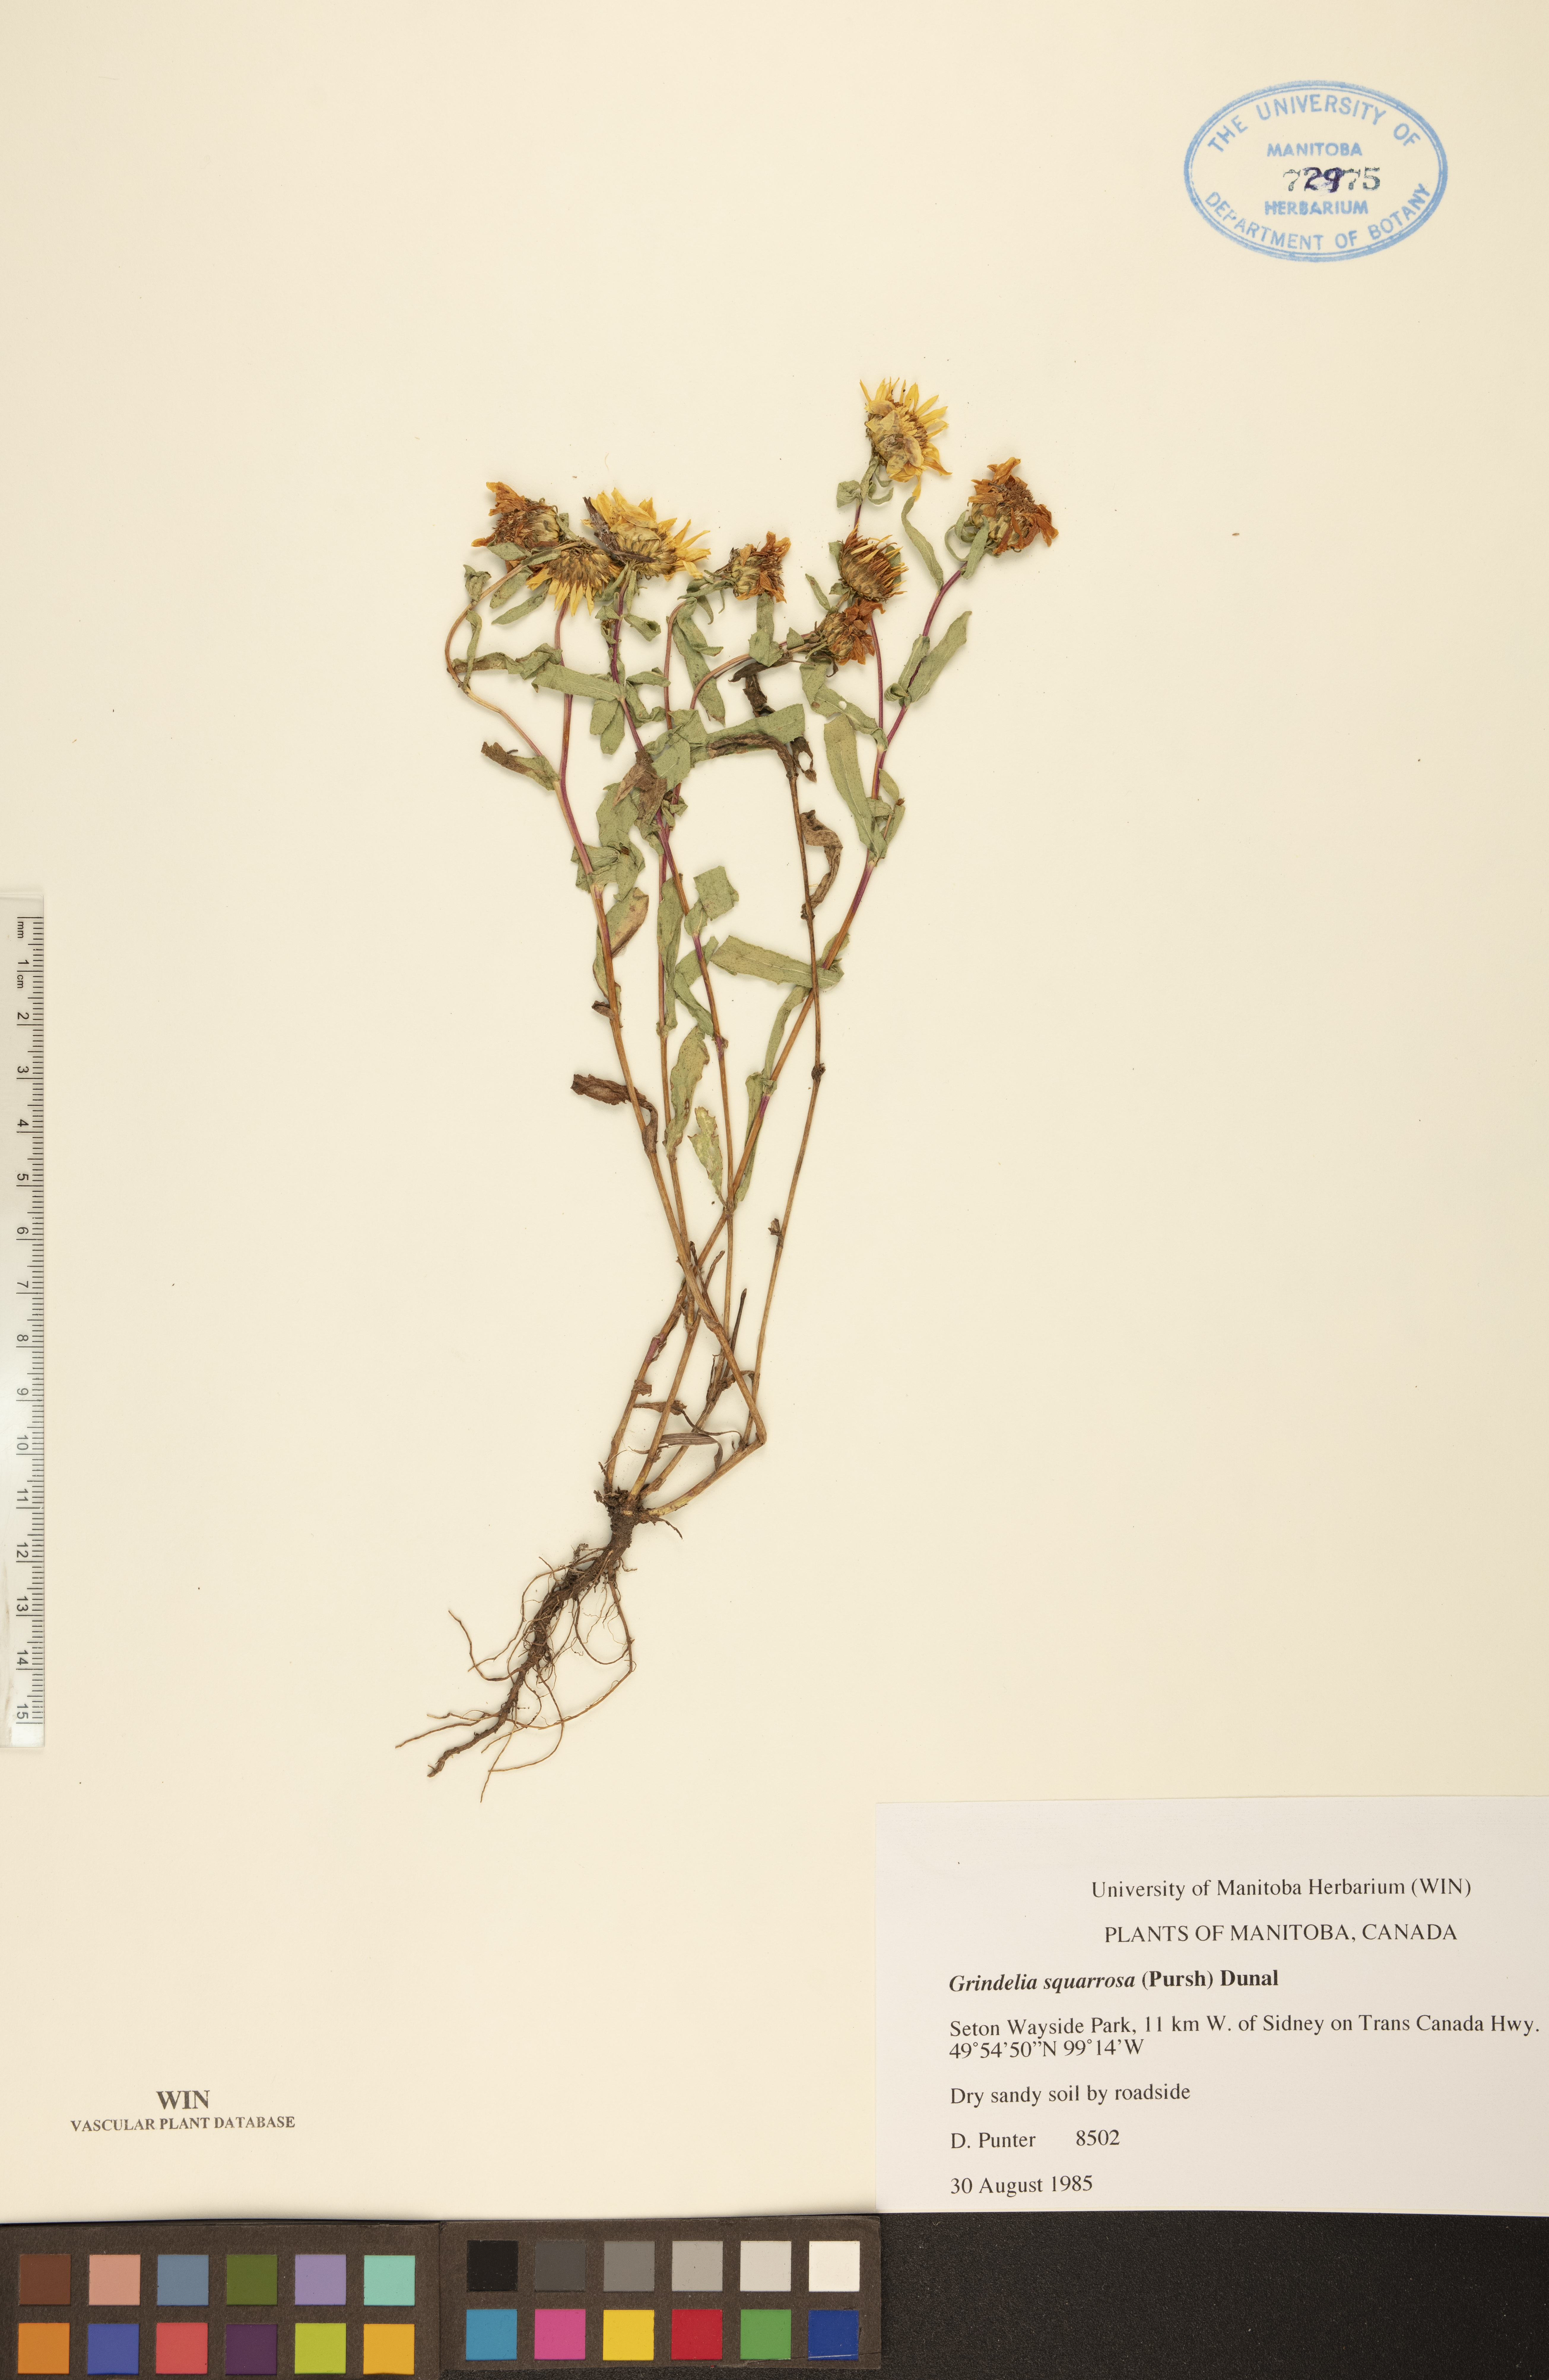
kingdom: Plantae
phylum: Tracheophyta
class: Magnoliopsida
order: Asterales
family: Asteraceae
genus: Grindelia
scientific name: Grindelia squarrosa
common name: Curly-cup gumweed
